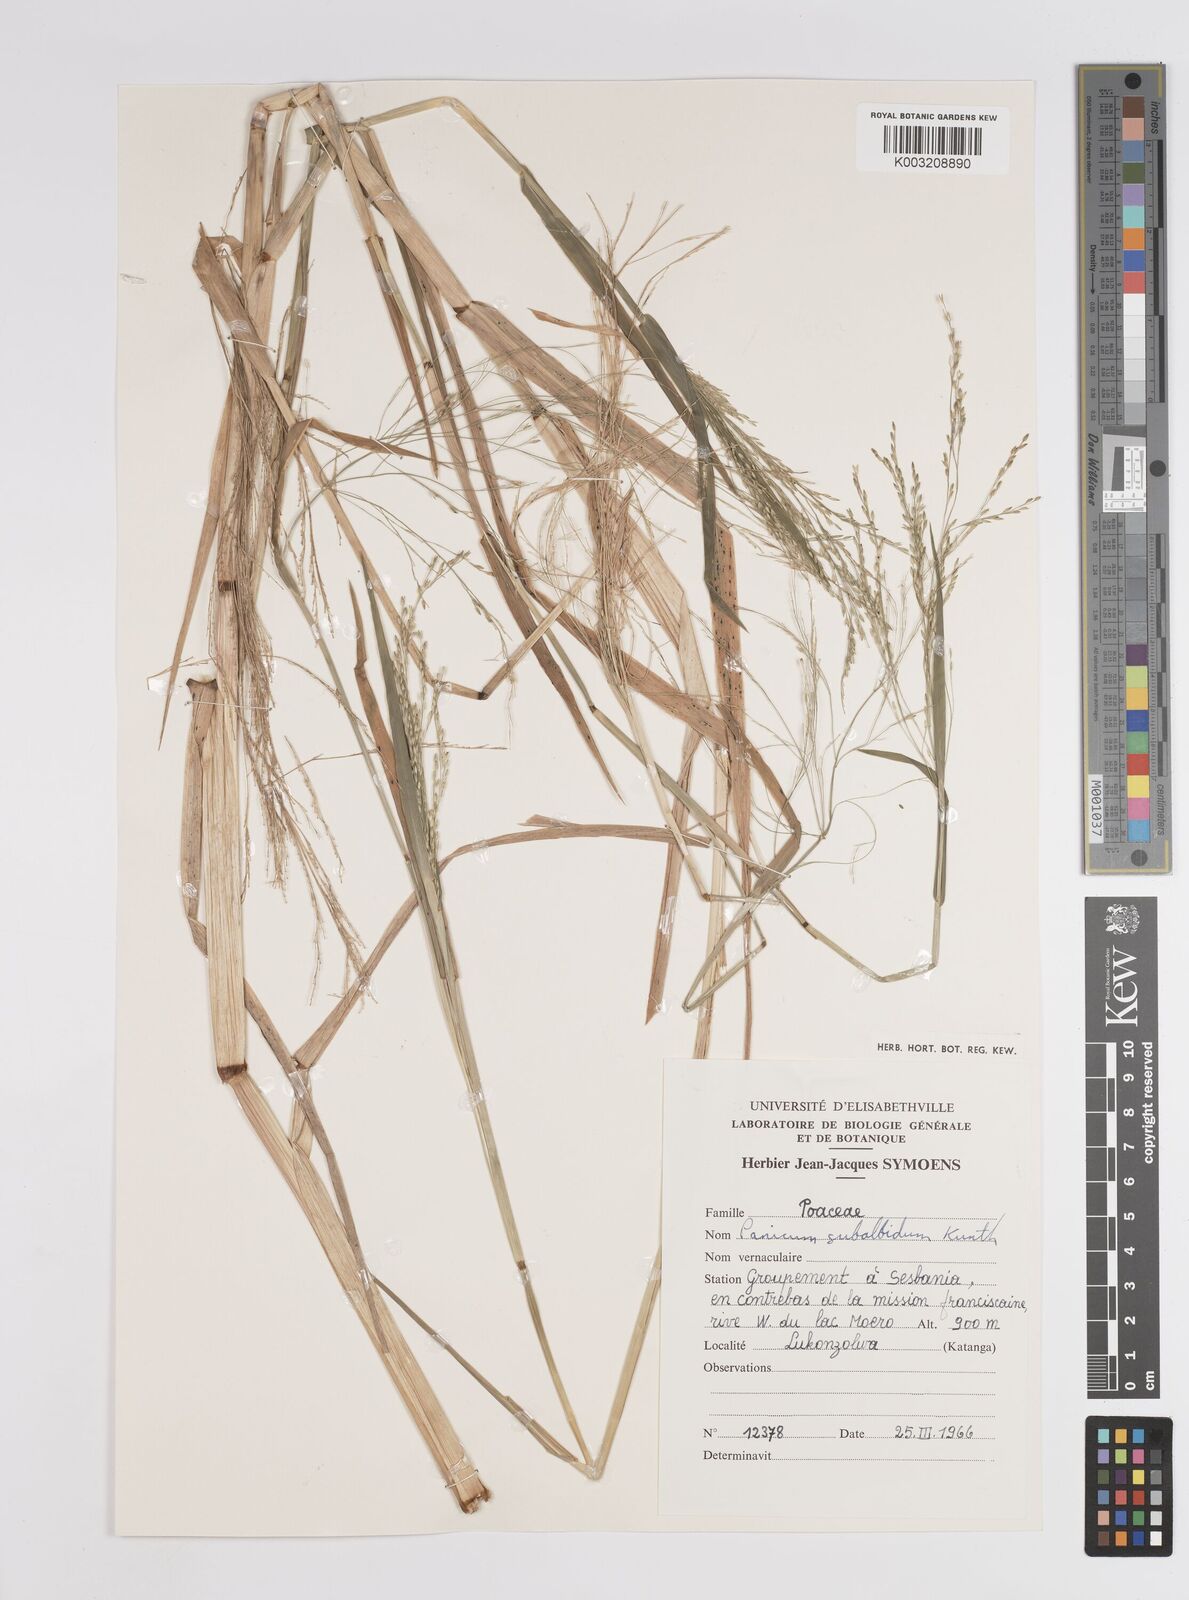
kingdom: Plantae
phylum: Tracheophyta
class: Liliopsida
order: Poales
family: Poaceae
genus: Panicum
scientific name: Panicum subalbidum
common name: Elbow buffalo grass
